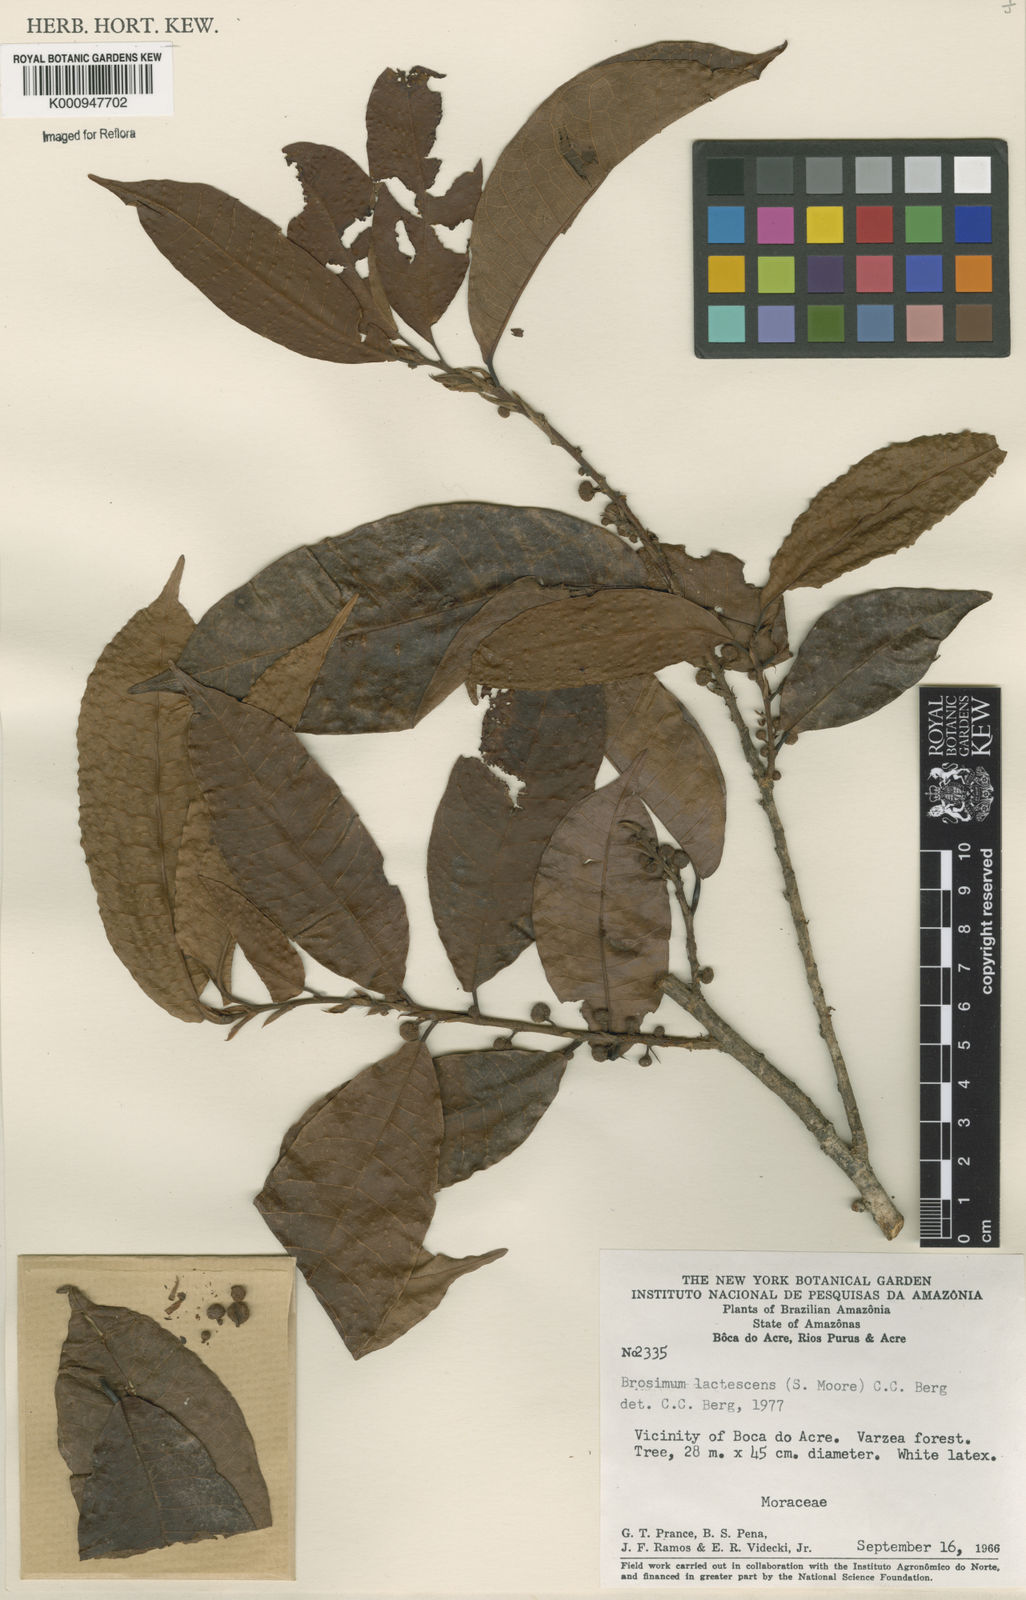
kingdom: Plantae
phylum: Tracheophyta
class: Magnoliopsida
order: Rosales
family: Moraceae
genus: Brosimum
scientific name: Brosimum lactescens
